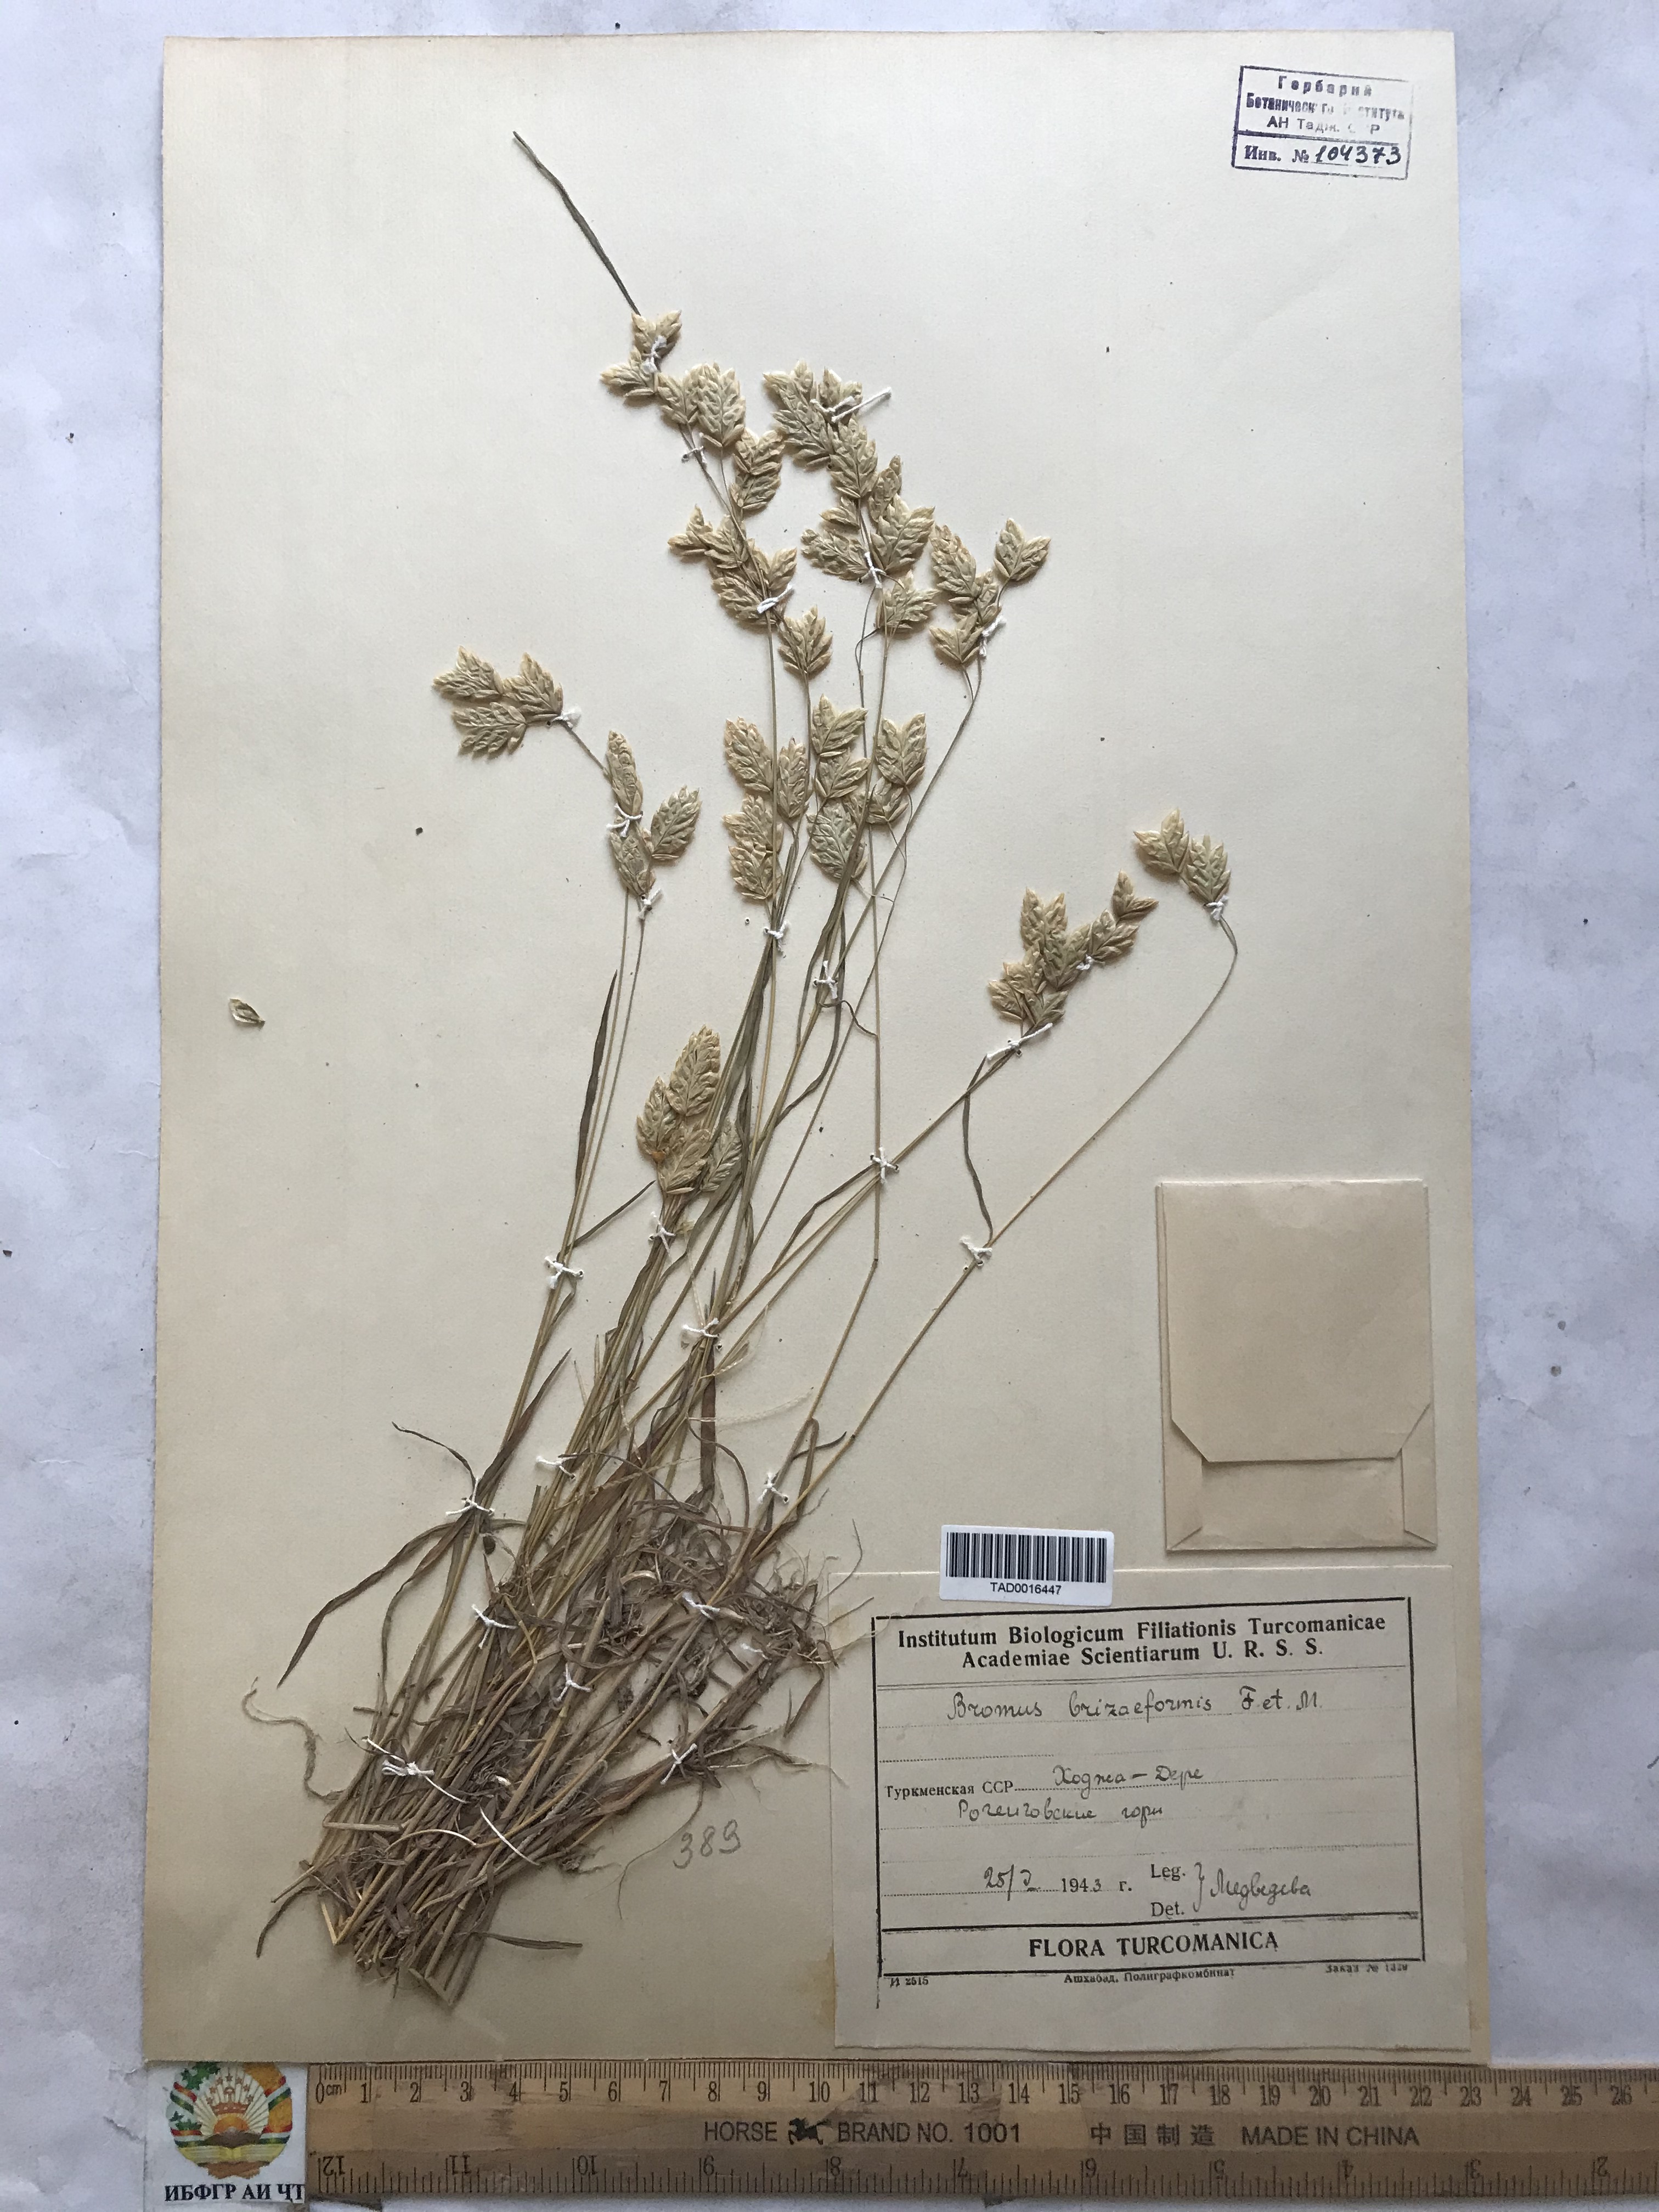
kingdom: Plantae
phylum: Tracheophyta
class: Liliopsida
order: Poales
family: Poaceae
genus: Bromus
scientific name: Bromus briziformis
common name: Rattlesnake brome
